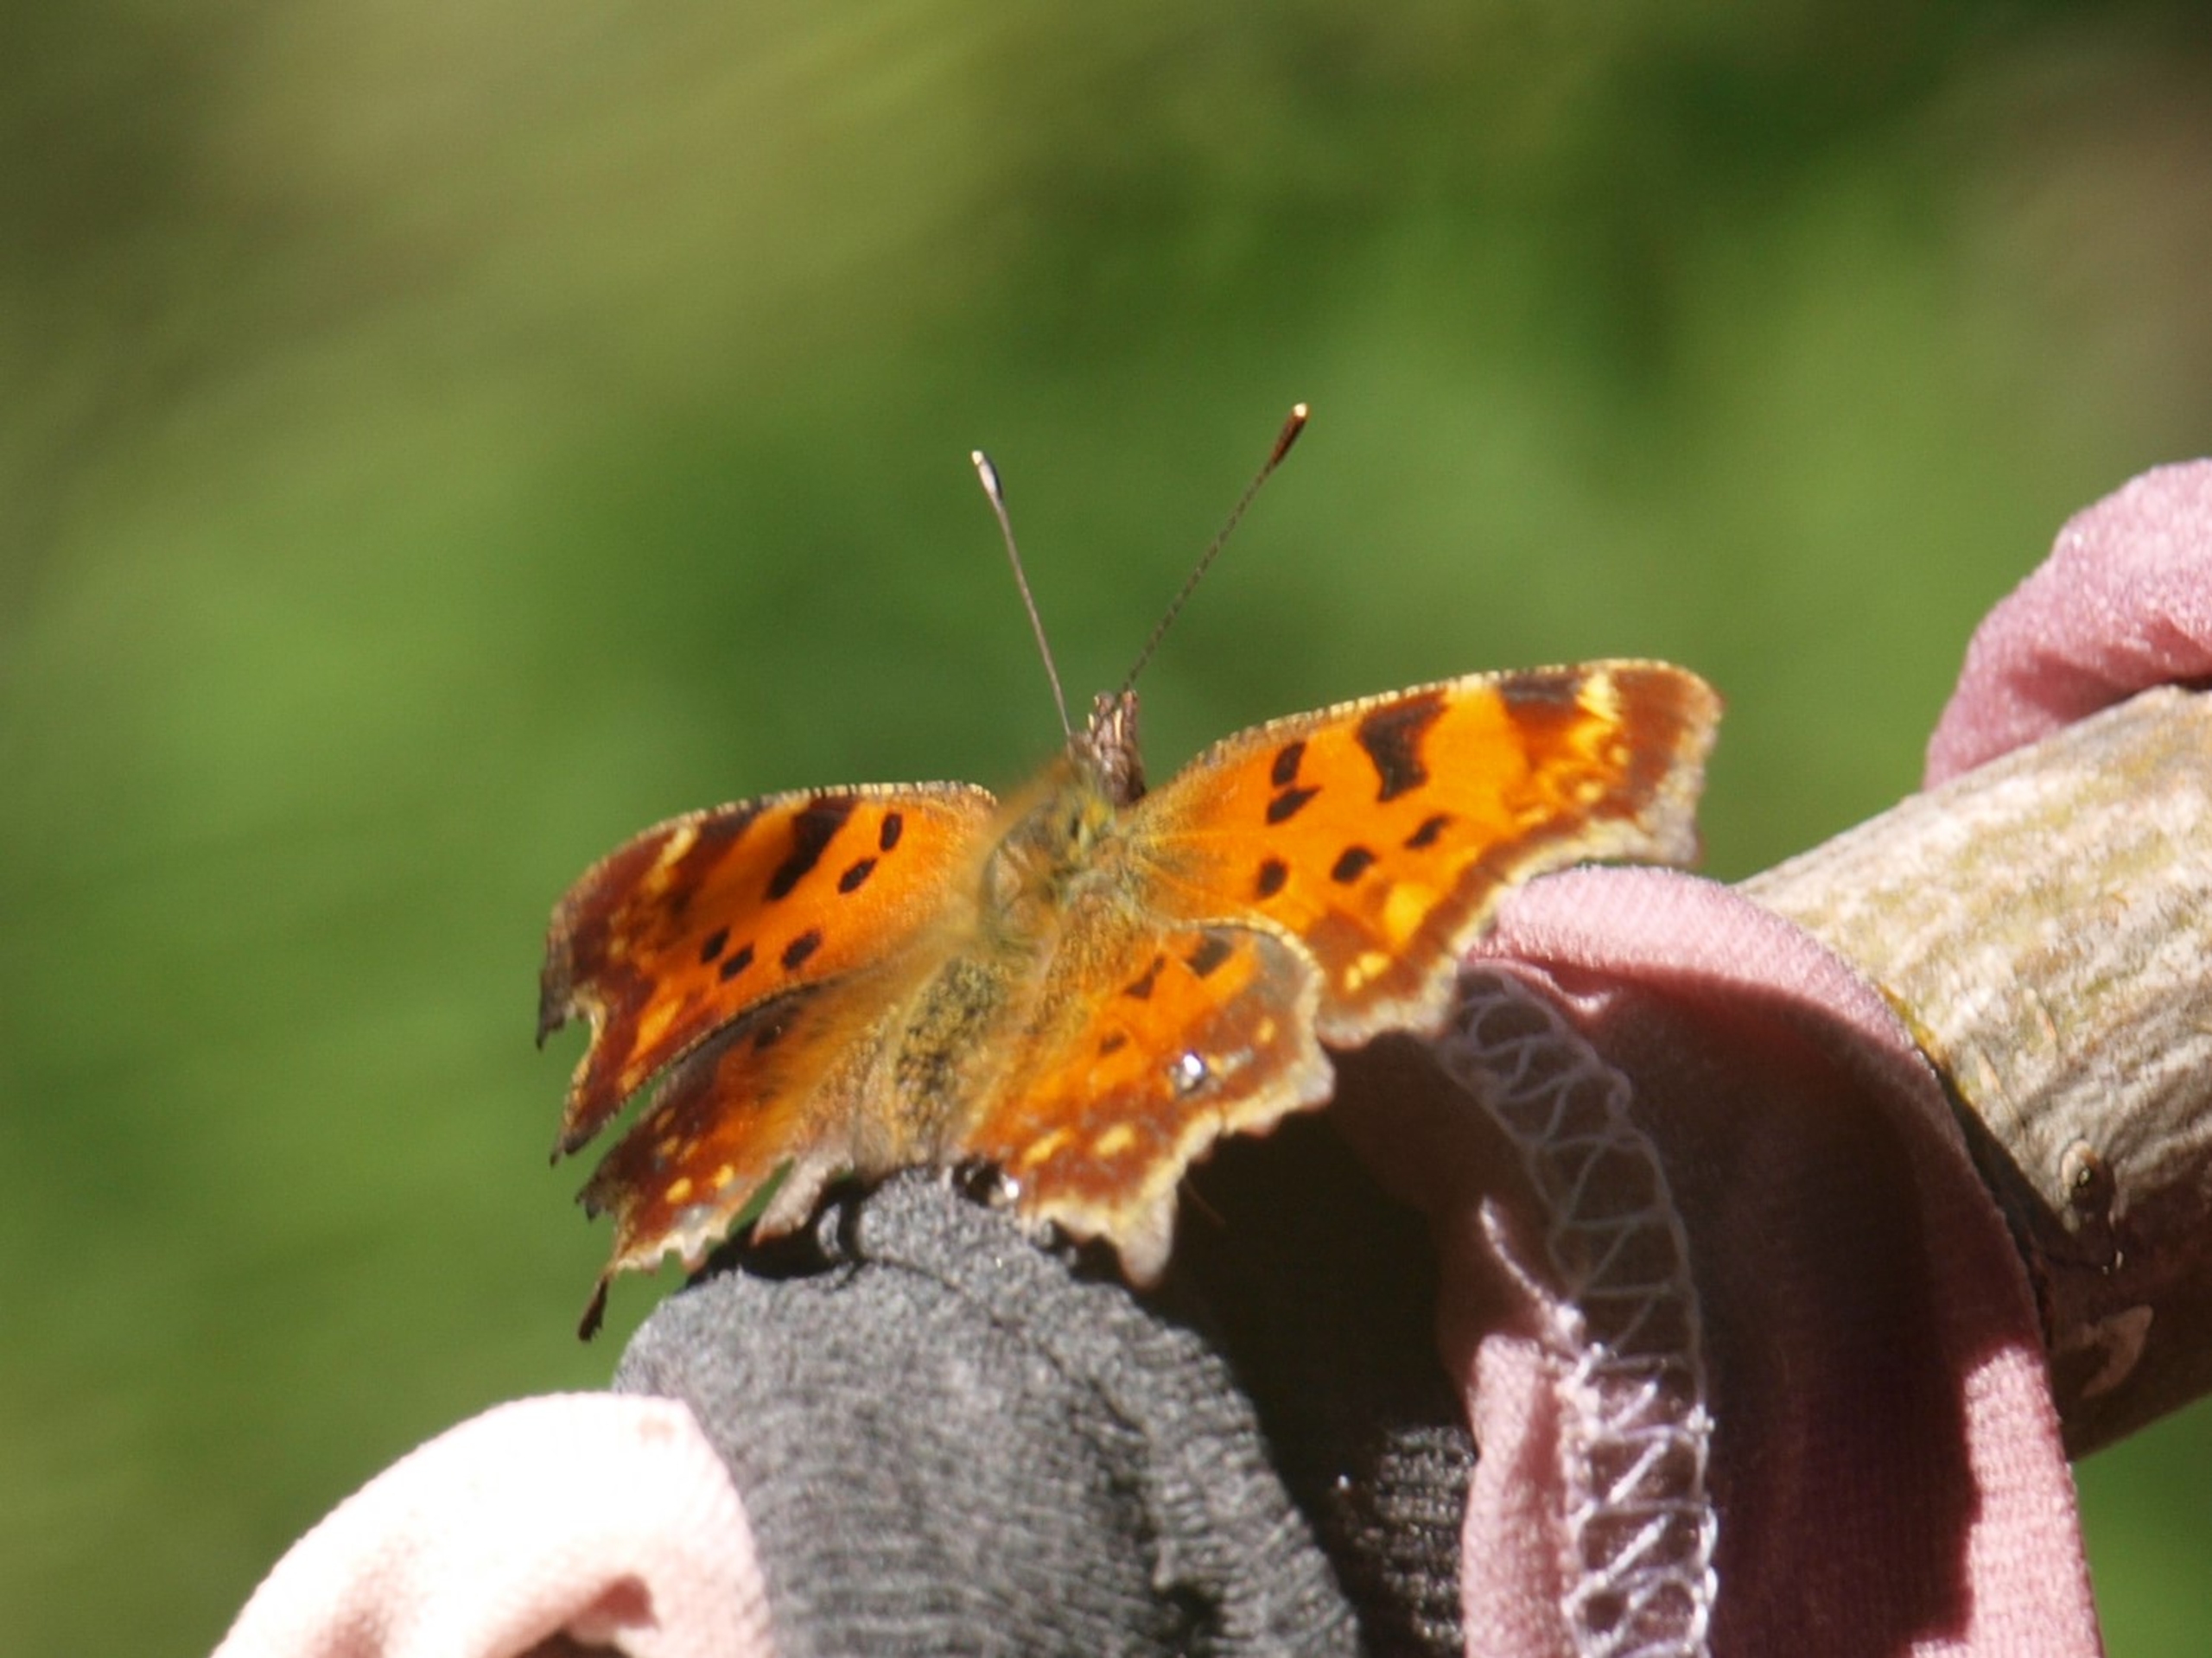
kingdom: Animalia
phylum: Arthropoda
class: Insecta
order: Lepidoptera
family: Nymphalidae
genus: Polygonia
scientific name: Polygonia c-album
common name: Det hvide C
